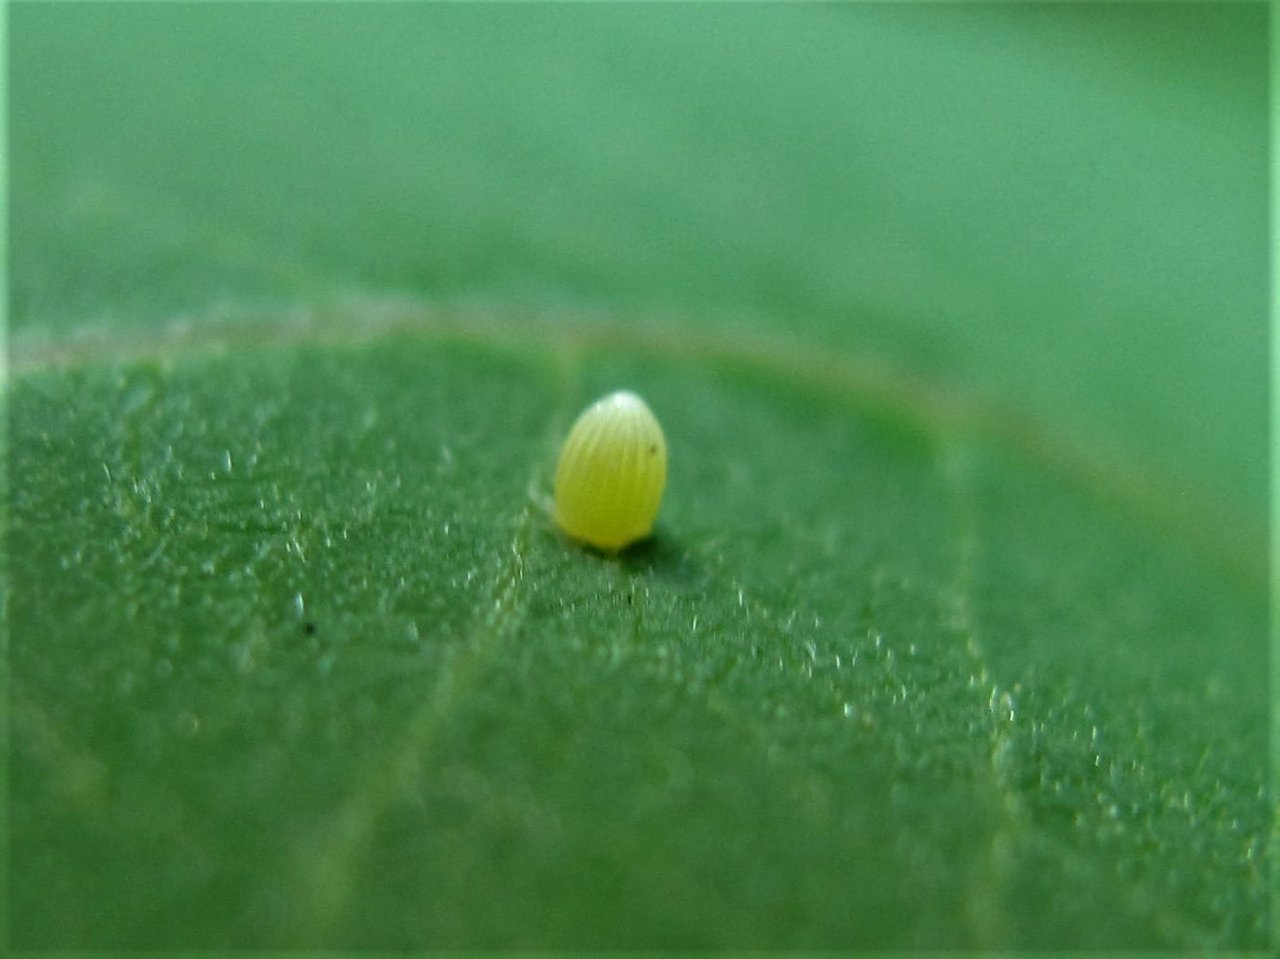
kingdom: Animalia
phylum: Arthropoda
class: Insecta
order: Lepidoptera
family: Nymphalidae
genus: Danaus
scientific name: Danaus plexippus
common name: Monarch
